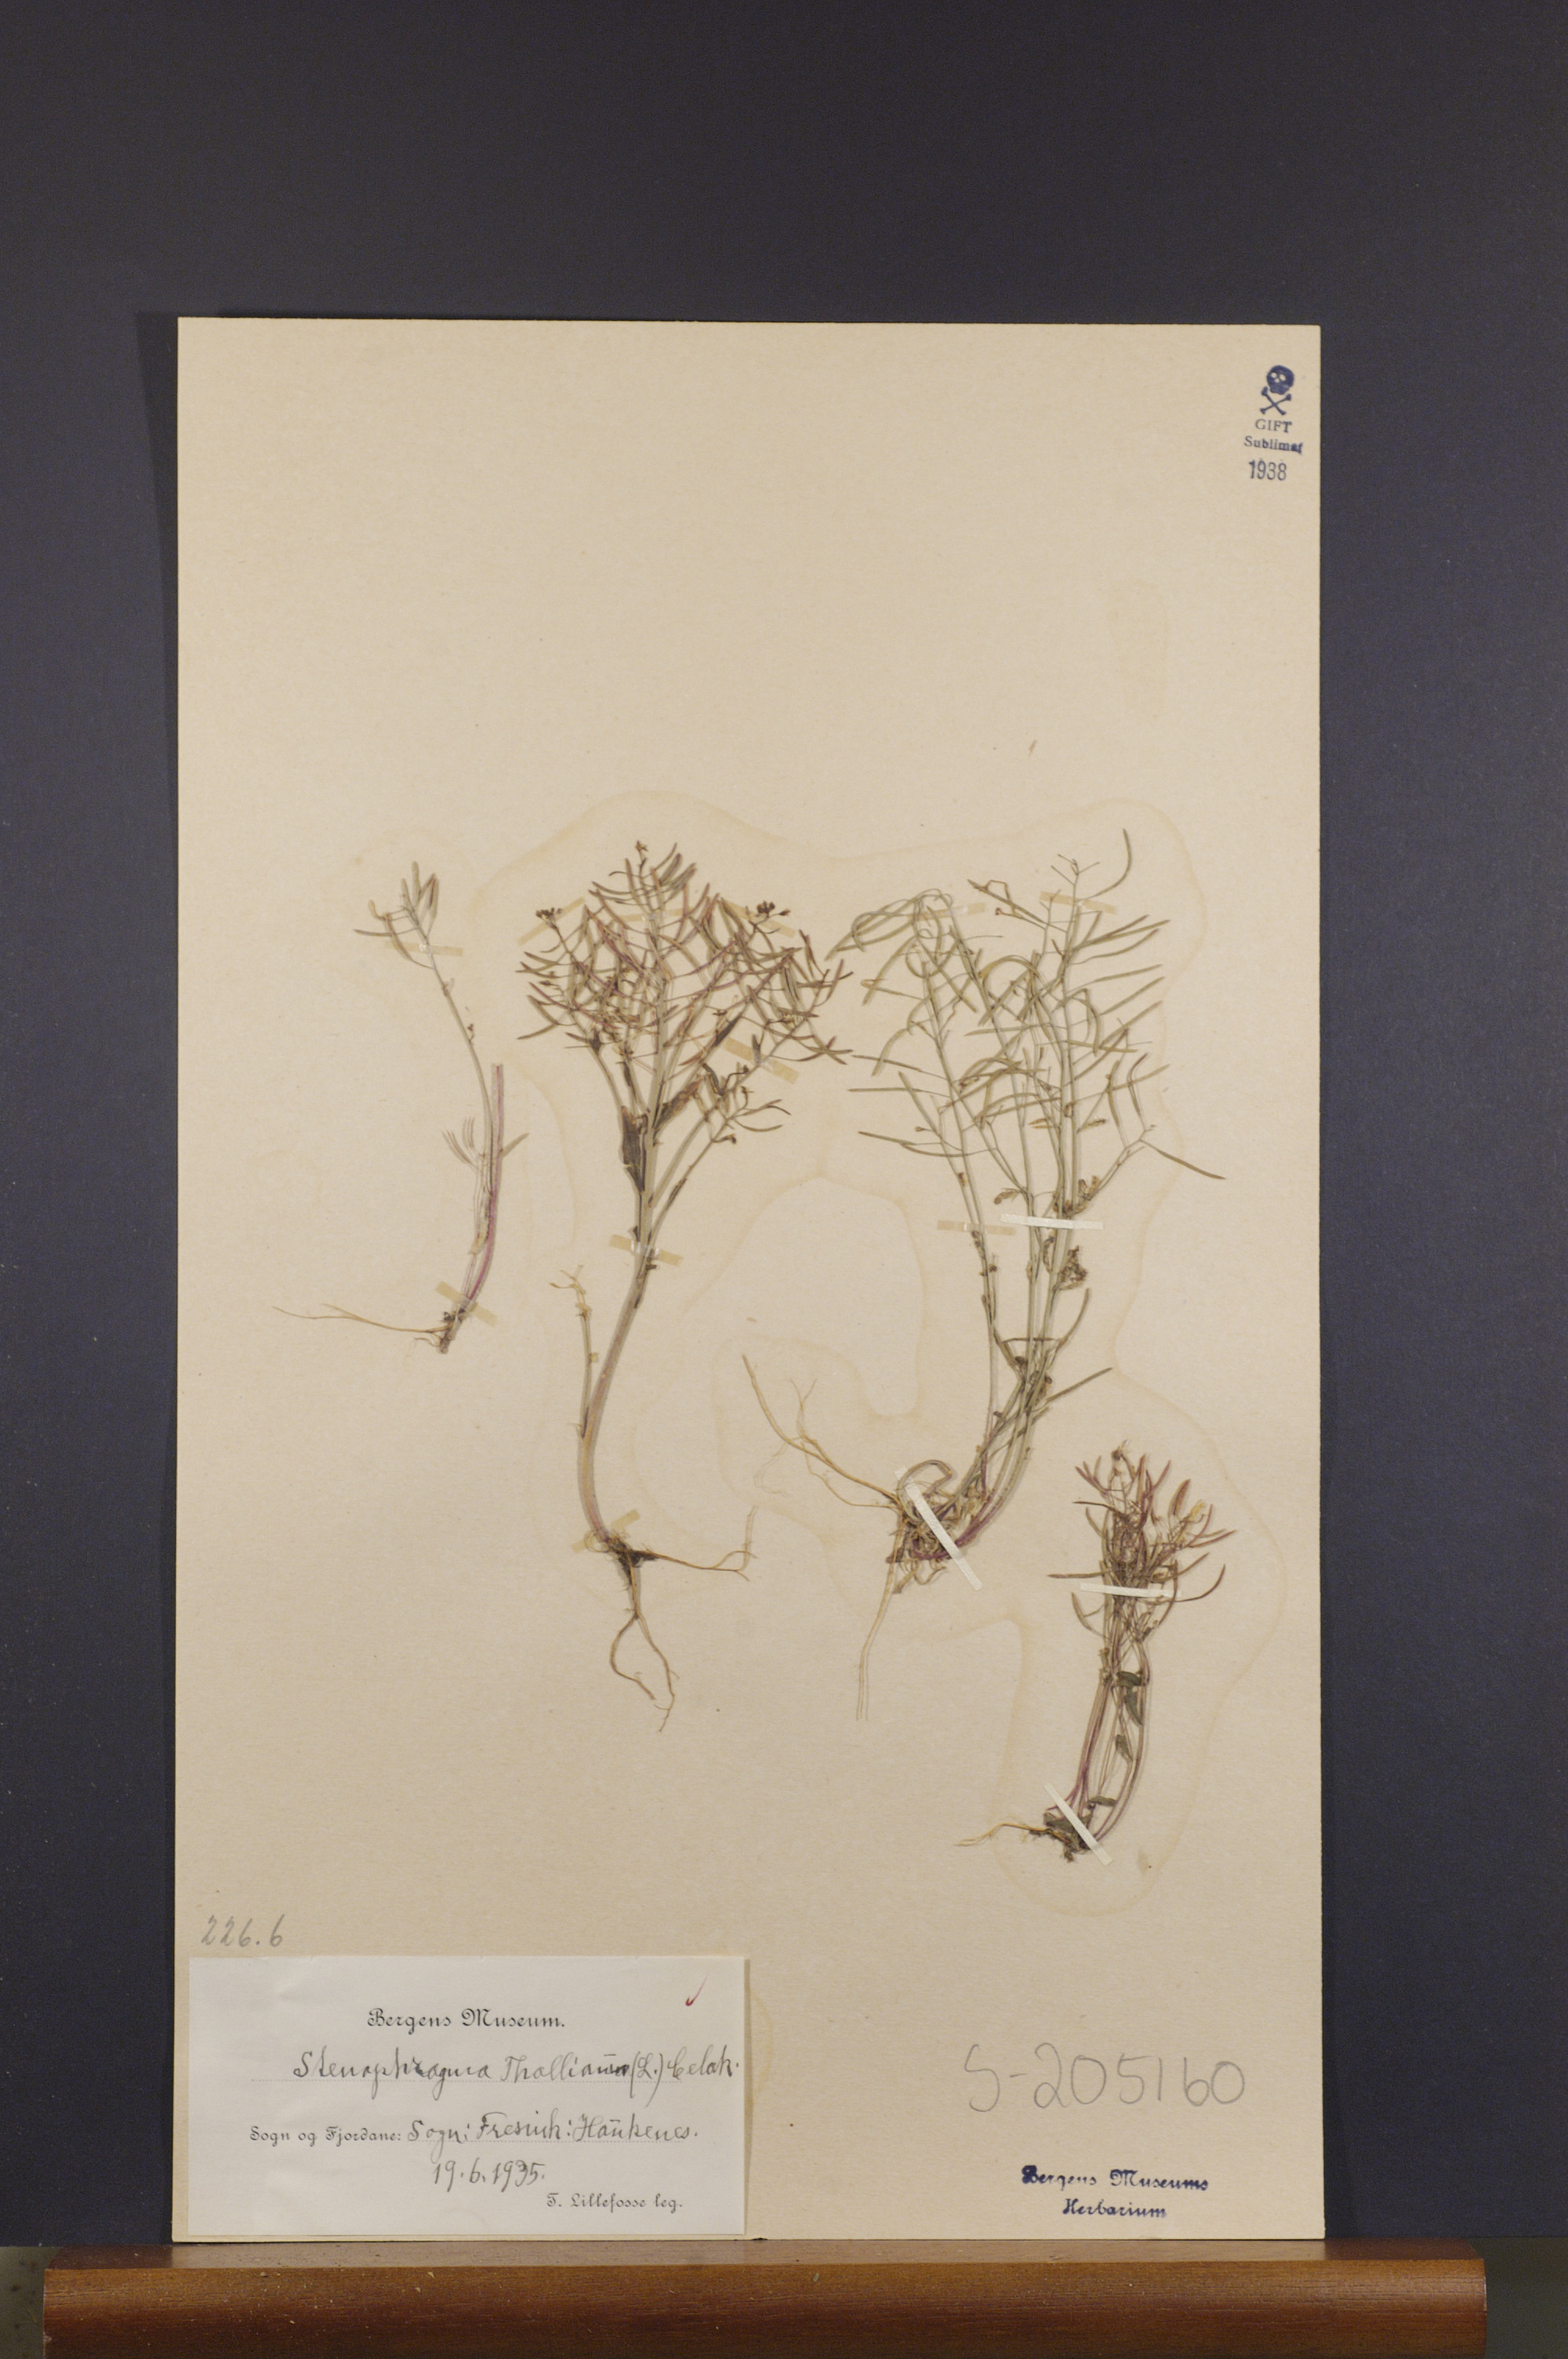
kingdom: Plantae
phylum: Tracheophyta
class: Magnoliopsida
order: Brassicales
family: Brassicaceae
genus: Arabidopsis
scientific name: Arabidopsis thaliana
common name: Thale cress
